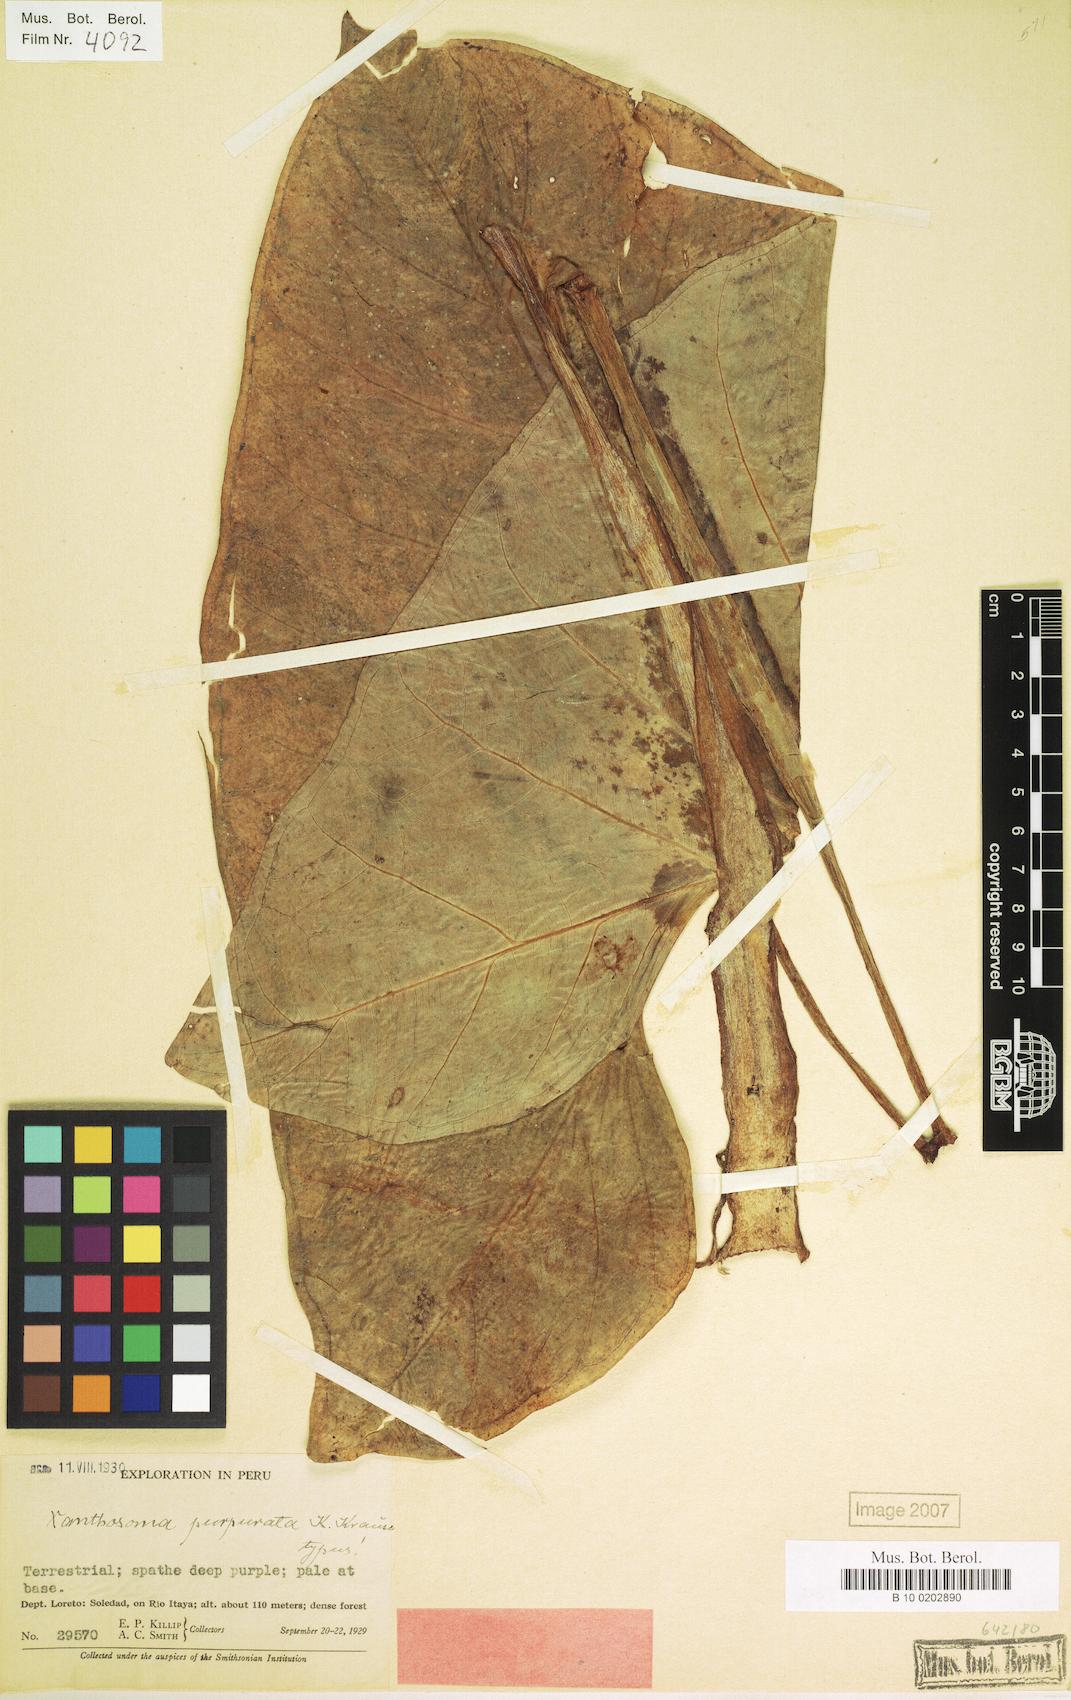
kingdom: Plantae
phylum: Tracheophyta
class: Liliopsida
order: Alismatales
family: Araceae
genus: Xanthosoma
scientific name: Xanthosoma hylaeae
